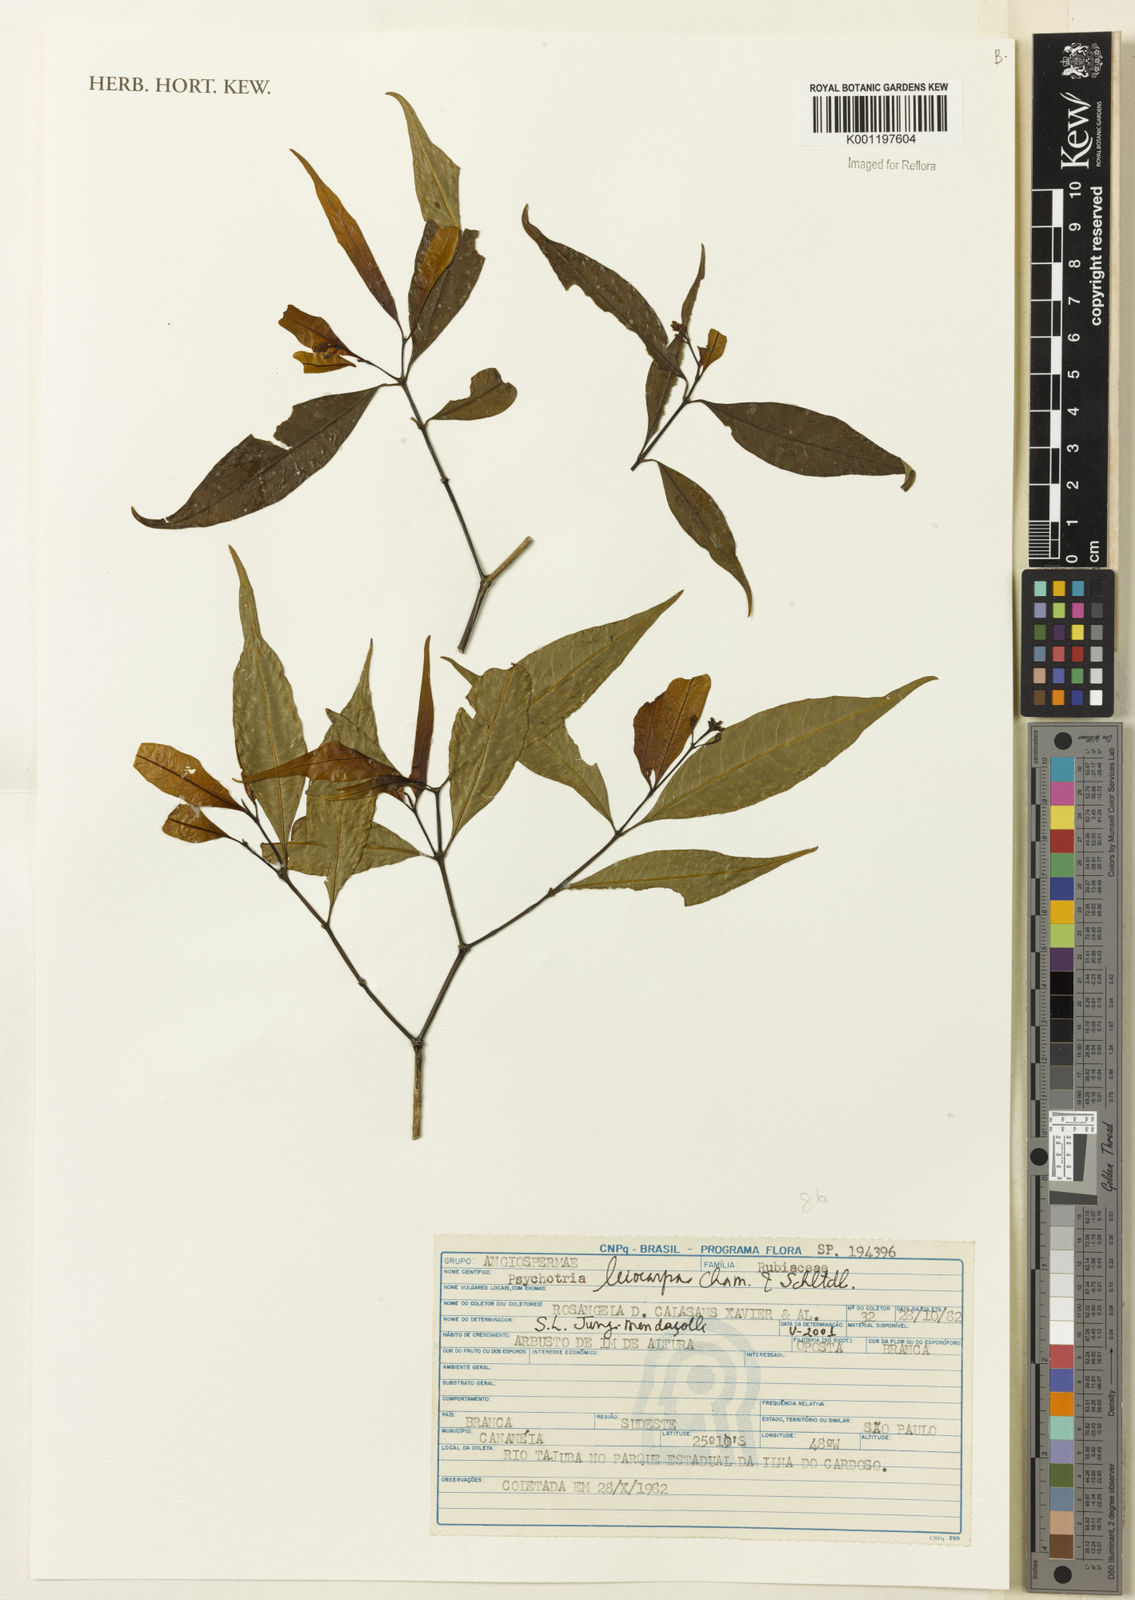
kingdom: Plantae
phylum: Tracheophyta
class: Magnoliopsida
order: Gentianales
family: Rubiaceae
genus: Psychotria
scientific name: Psychotria leiocarpa
